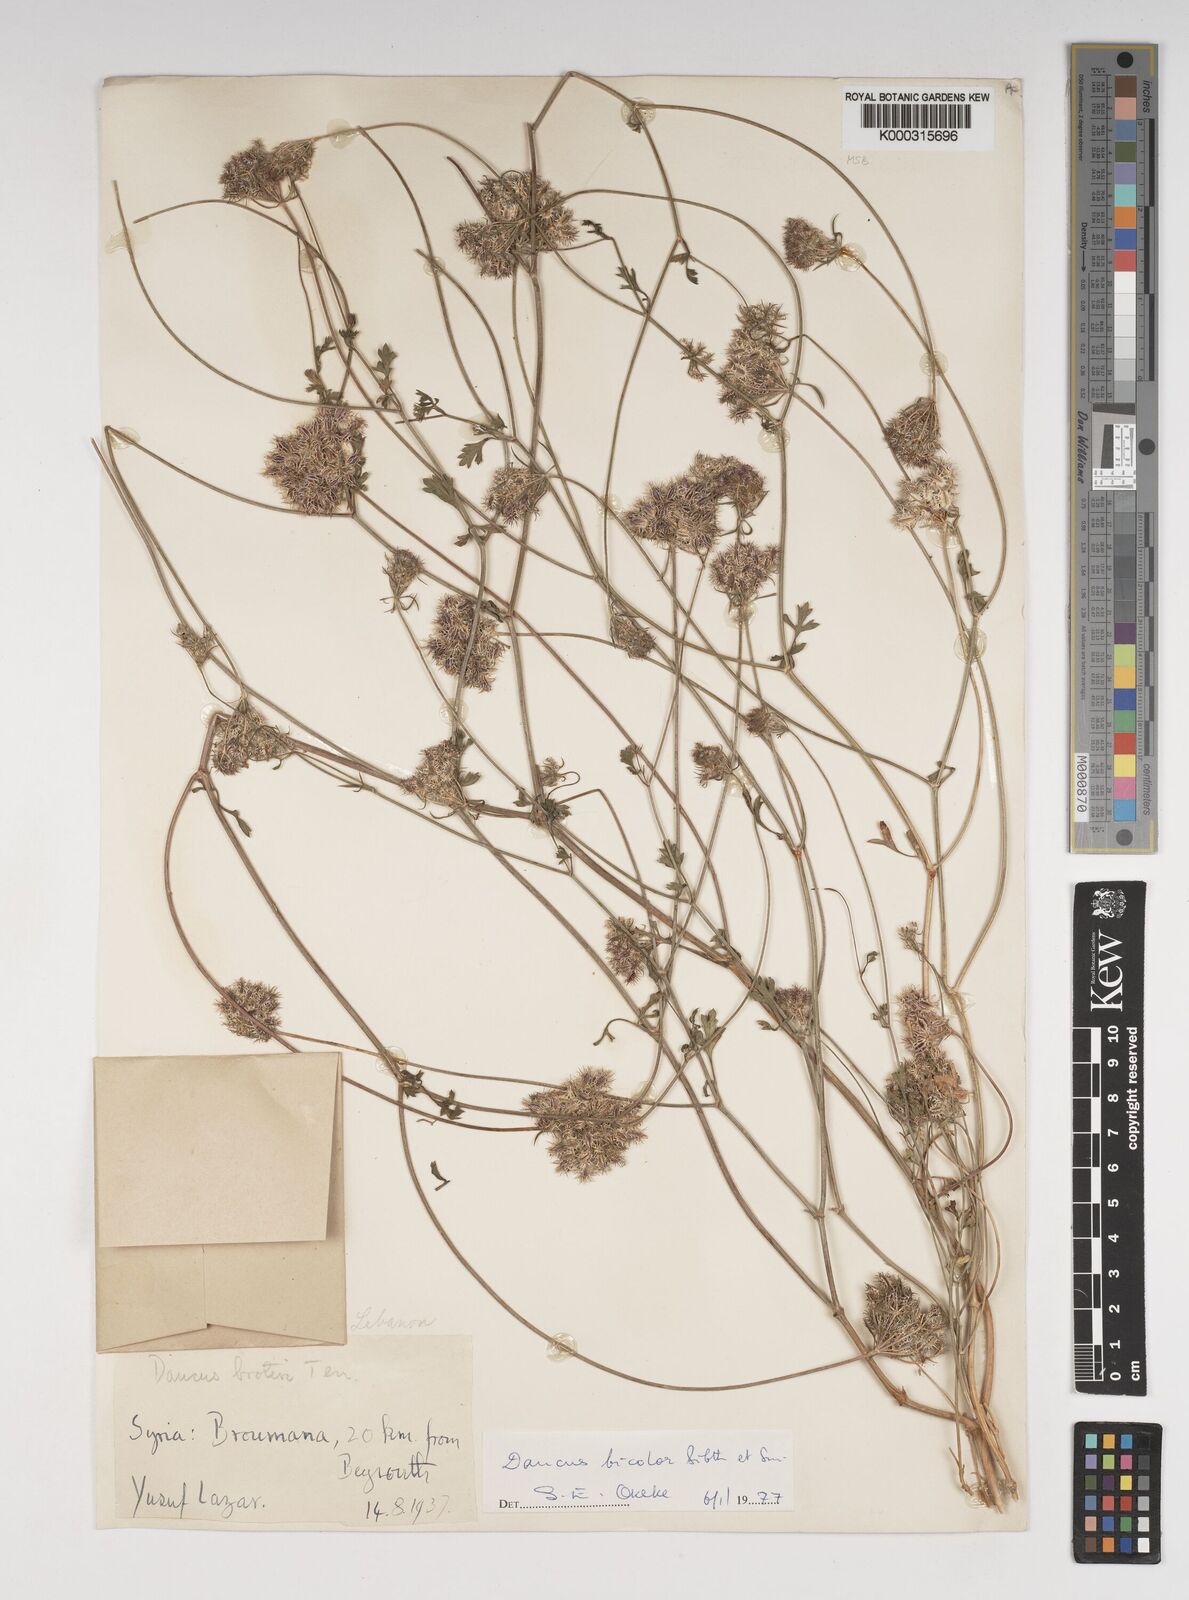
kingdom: Plantae
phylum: Tracheophyta
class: Magnoliopsida
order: Apiales
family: Apiaceae
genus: Daucus
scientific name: Daucus
